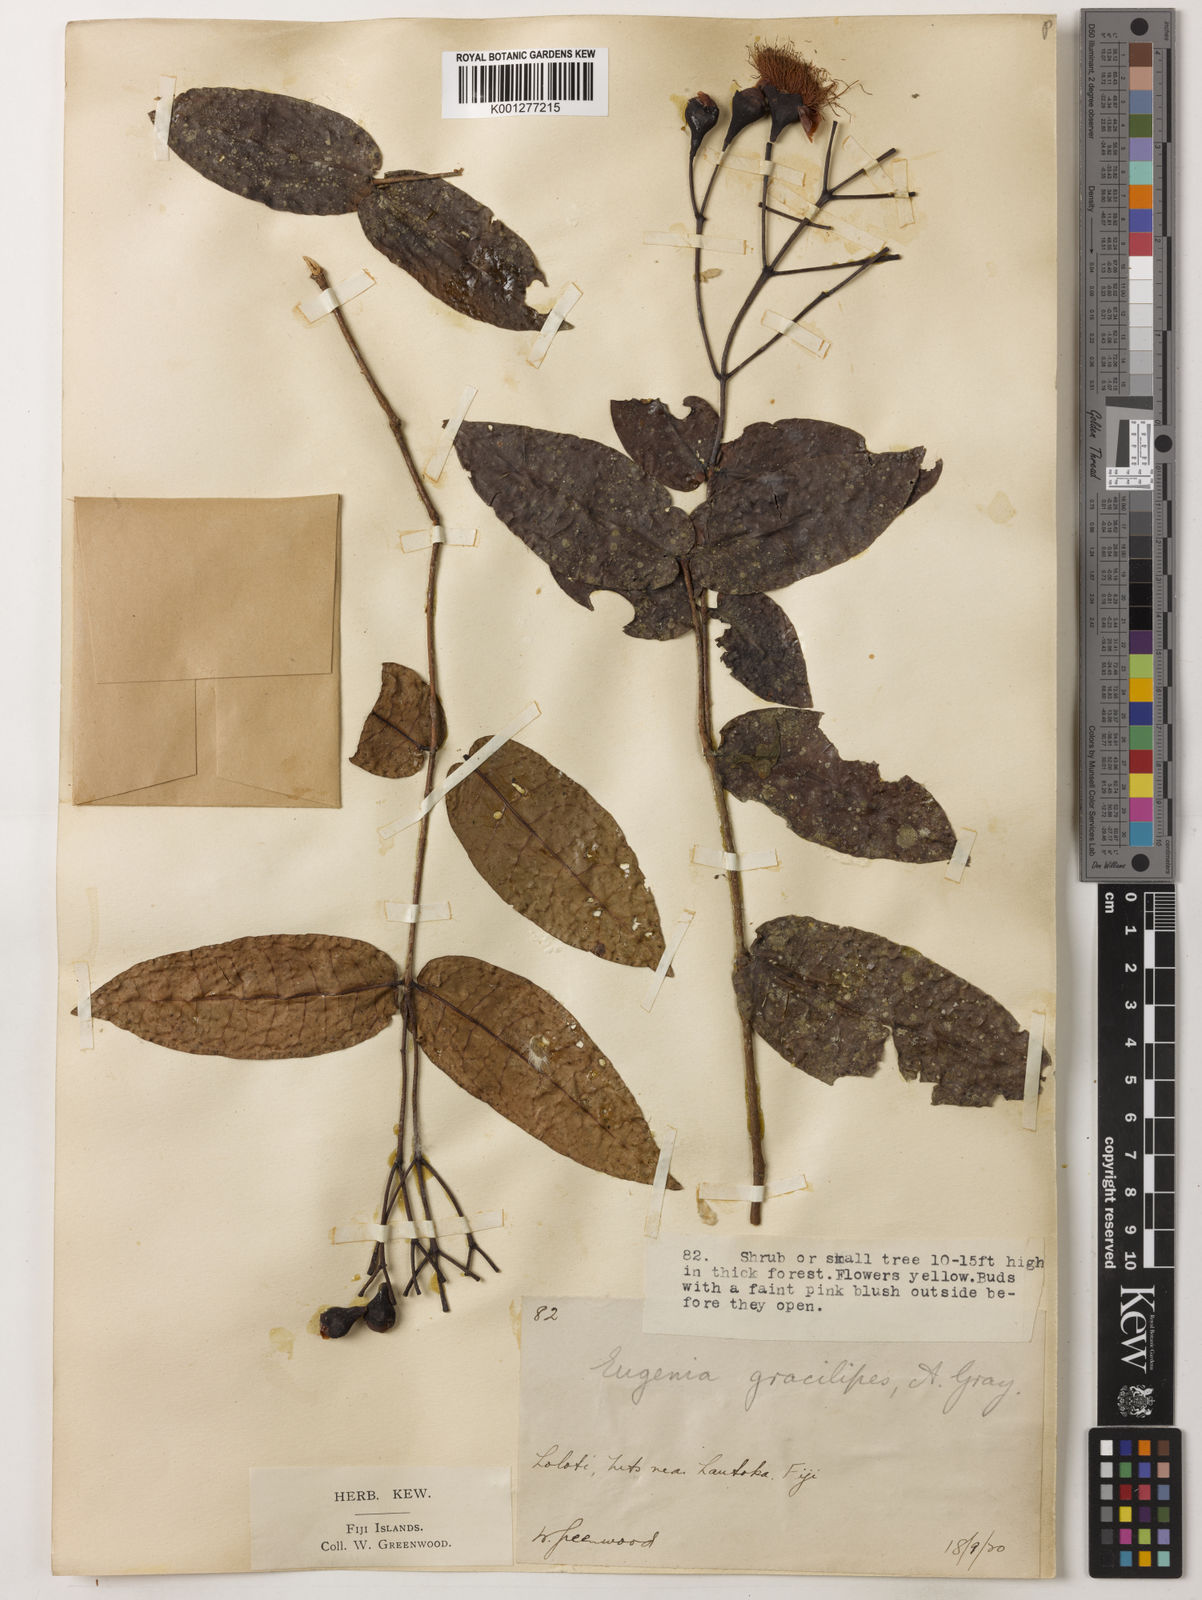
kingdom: Plantae
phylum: Tracheophyta
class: Magnoliopsida
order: Myrtales
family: Myrtaceae
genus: Syzygium
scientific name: Syzygium gracilipes
